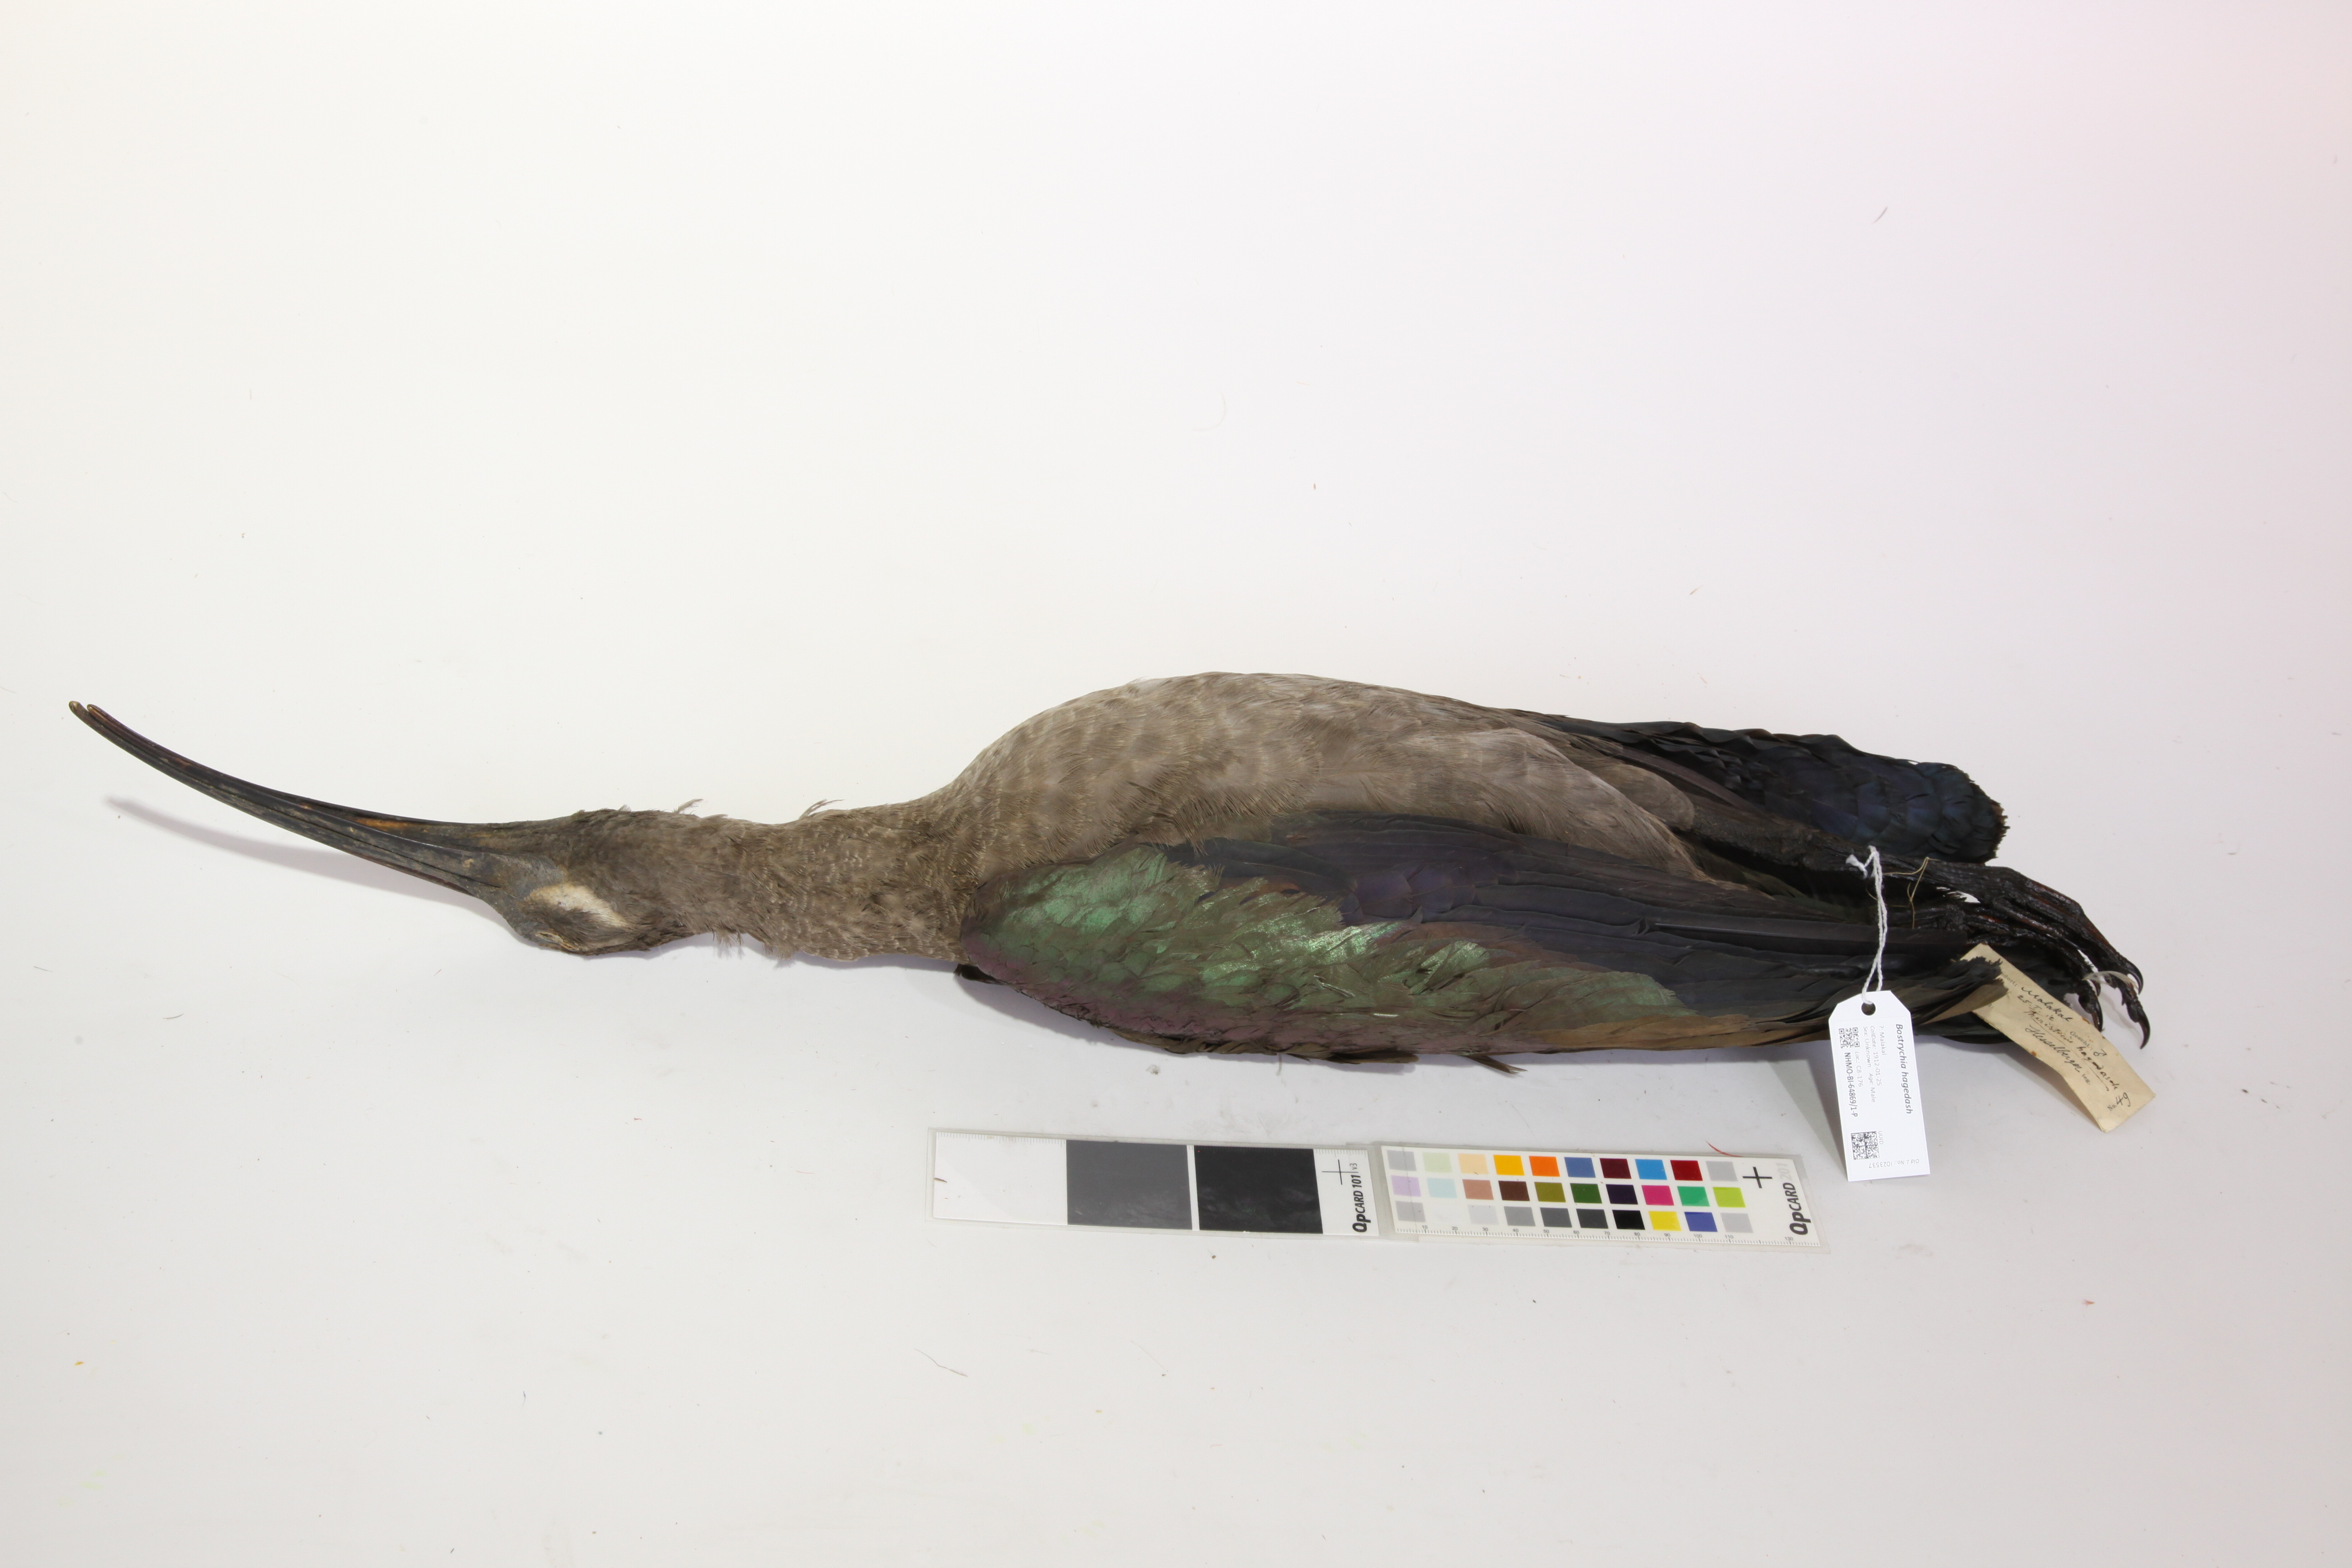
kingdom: Animalia
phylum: Chordata
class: Aves
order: Pelecaniformes
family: Threskiornithidae
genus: Bostrychia
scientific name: Bostrychia hagedash
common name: Hadada ibis
